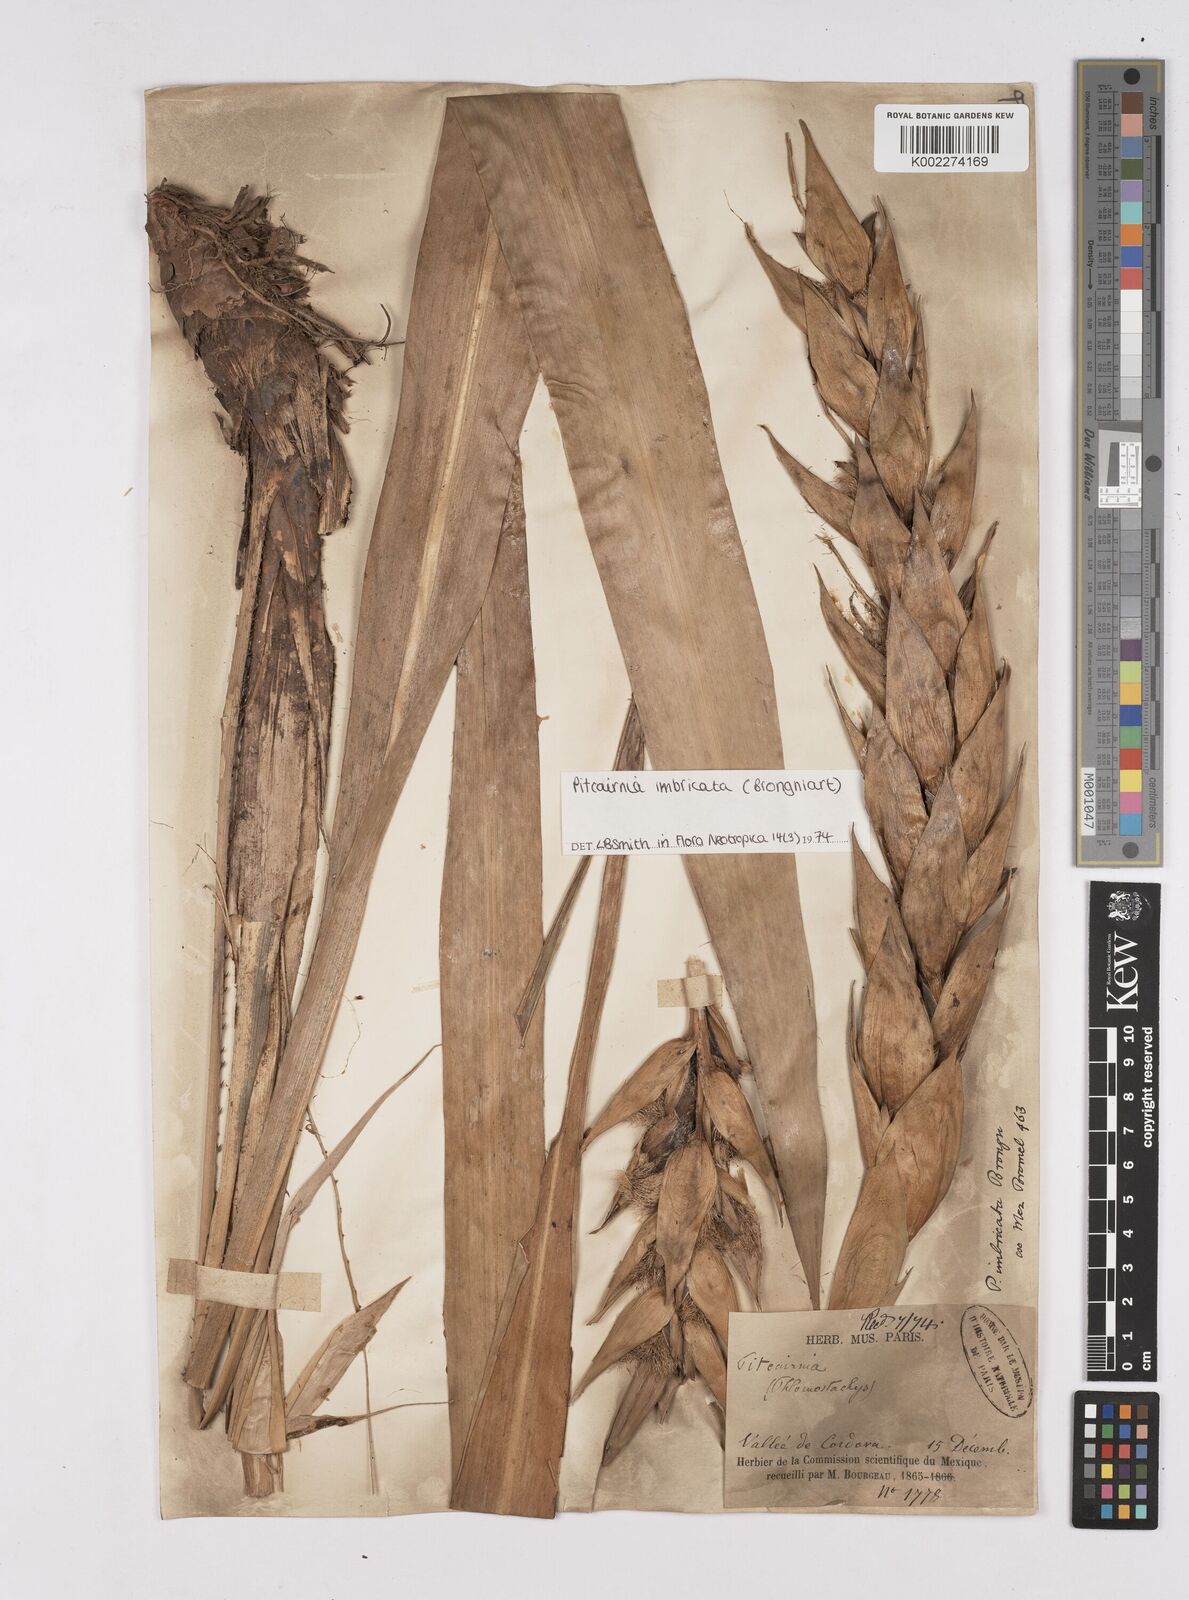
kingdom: Plantae
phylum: Tracheophyta
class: Liliopsida
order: Poales
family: Bromeliaceae
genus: Pitcairnia
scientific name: Pitcairnia imbricata
